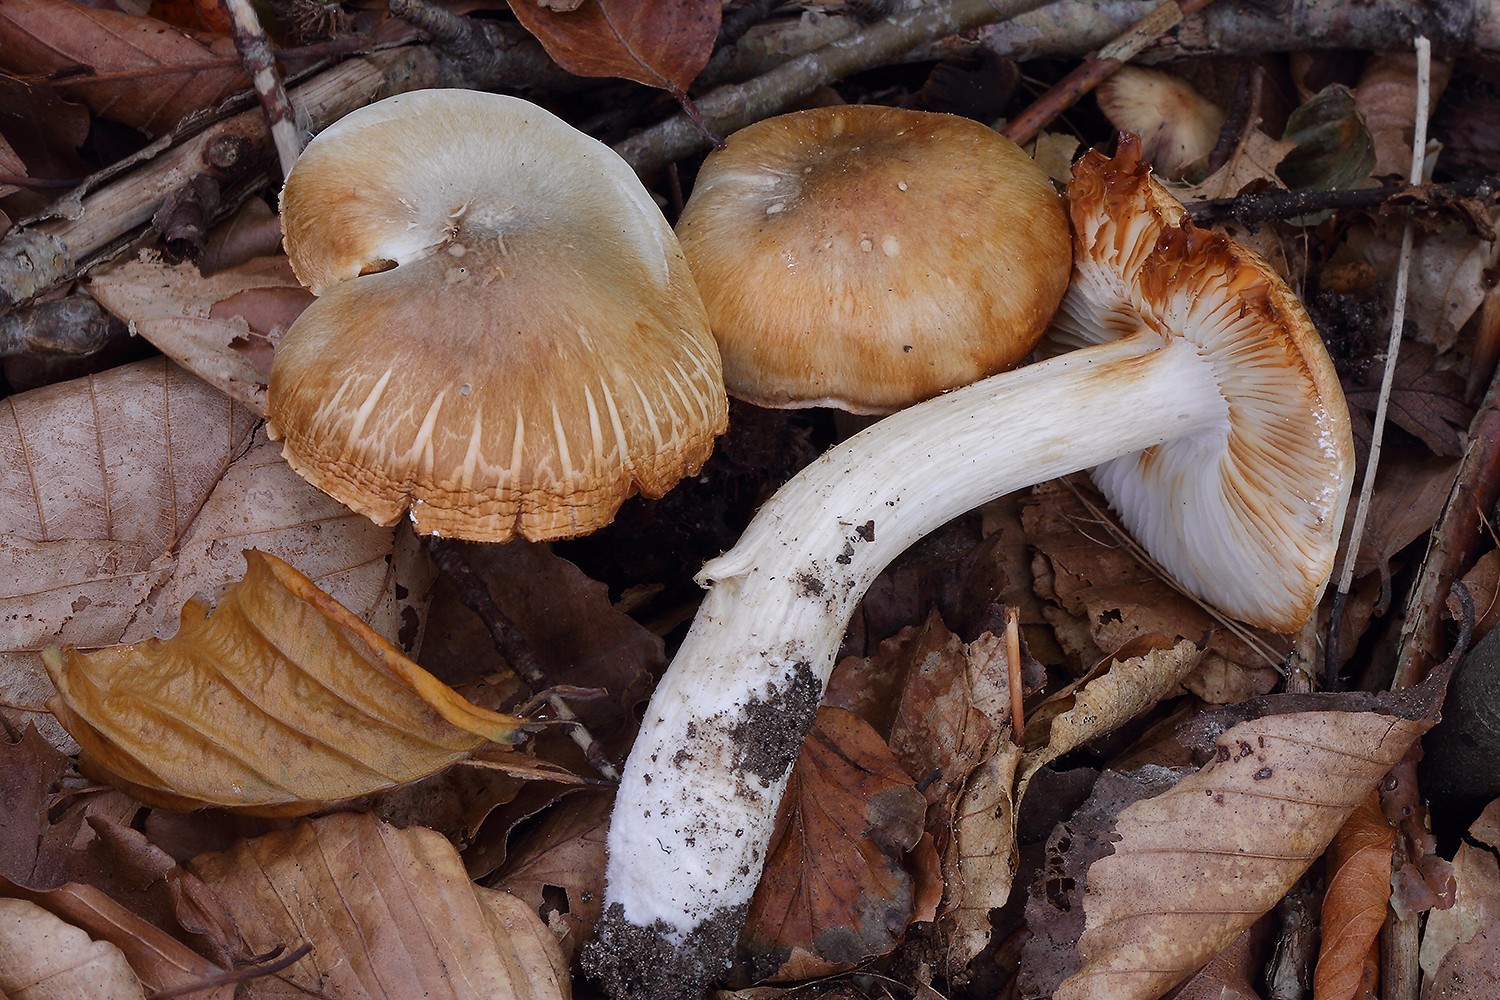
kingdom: Fungi
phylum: Basidiomycota
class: Agaricomycetes
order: Agaricales
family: Tricholomataceae
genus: Tricholoma
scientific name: Tricholoma saponaceum
